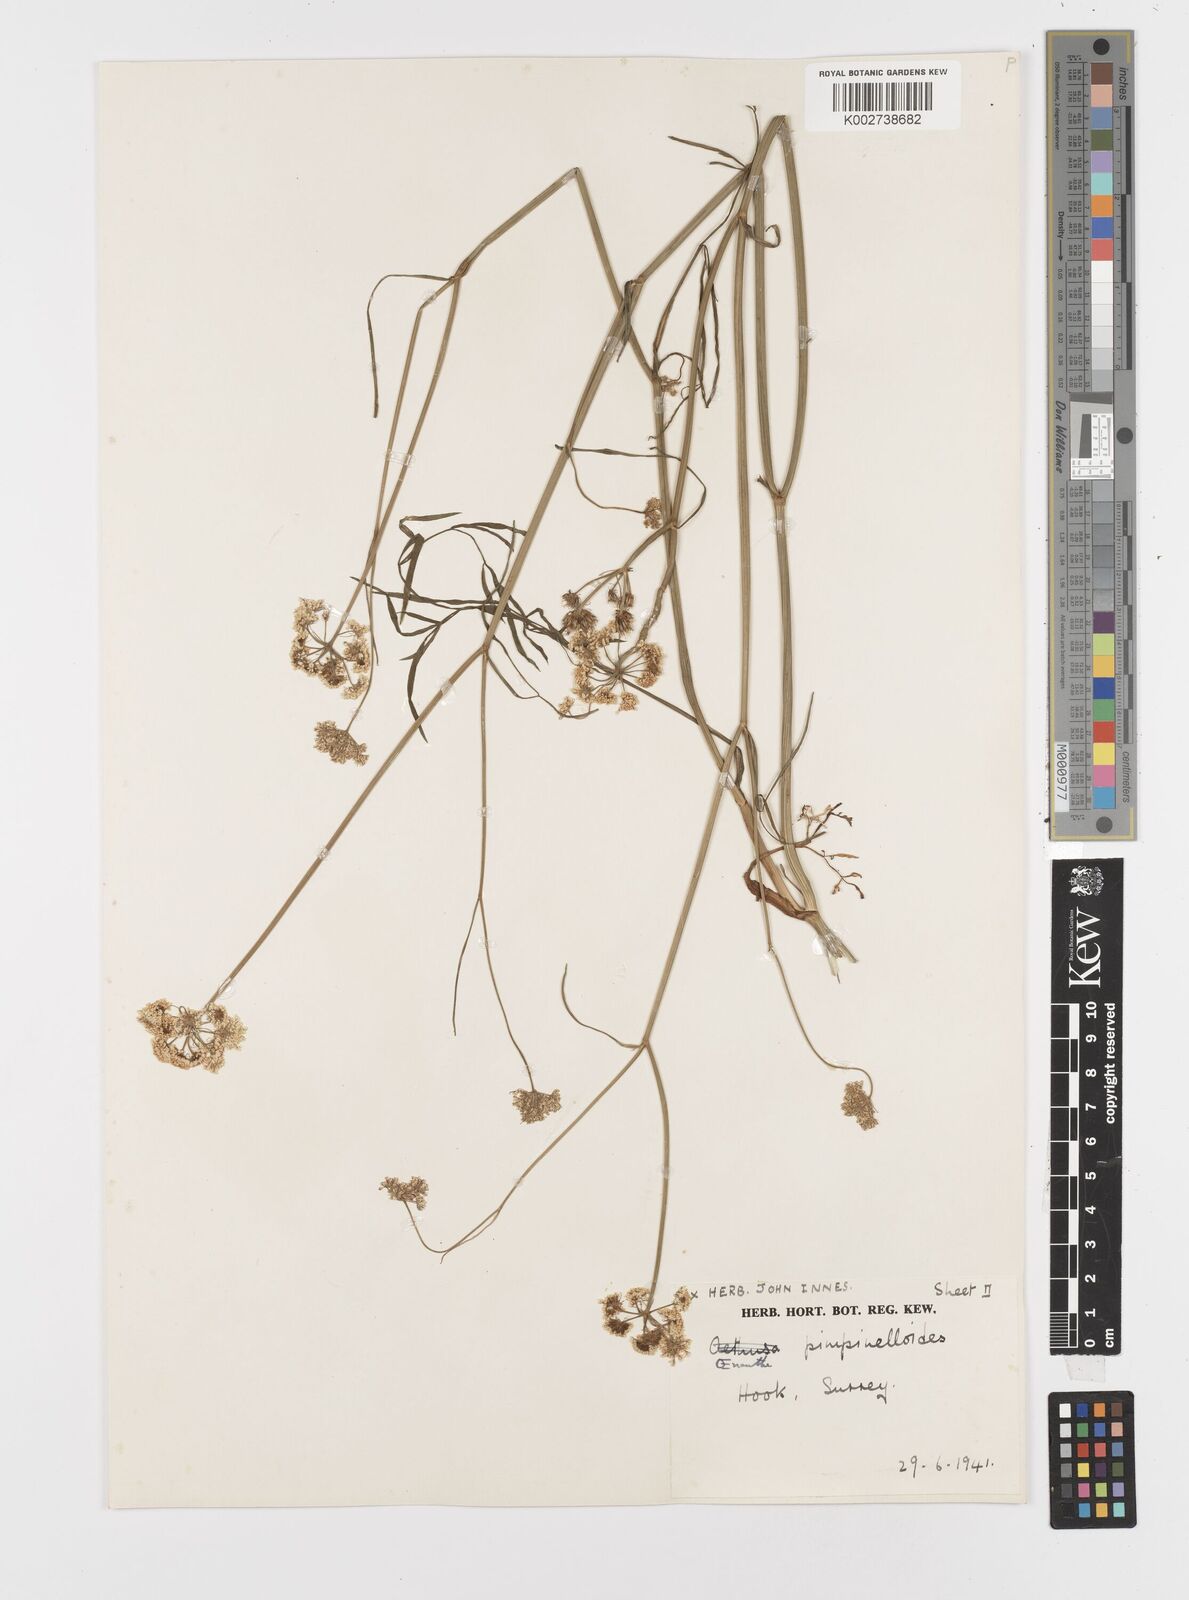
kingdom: Plantae
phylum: Tracheophyta
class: Magnoliopsida
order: Apiales
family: Apiaceae
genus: Oenanthe
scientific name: Oenanthe pimpinelloides
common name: Corky-fruited water-dropwort
